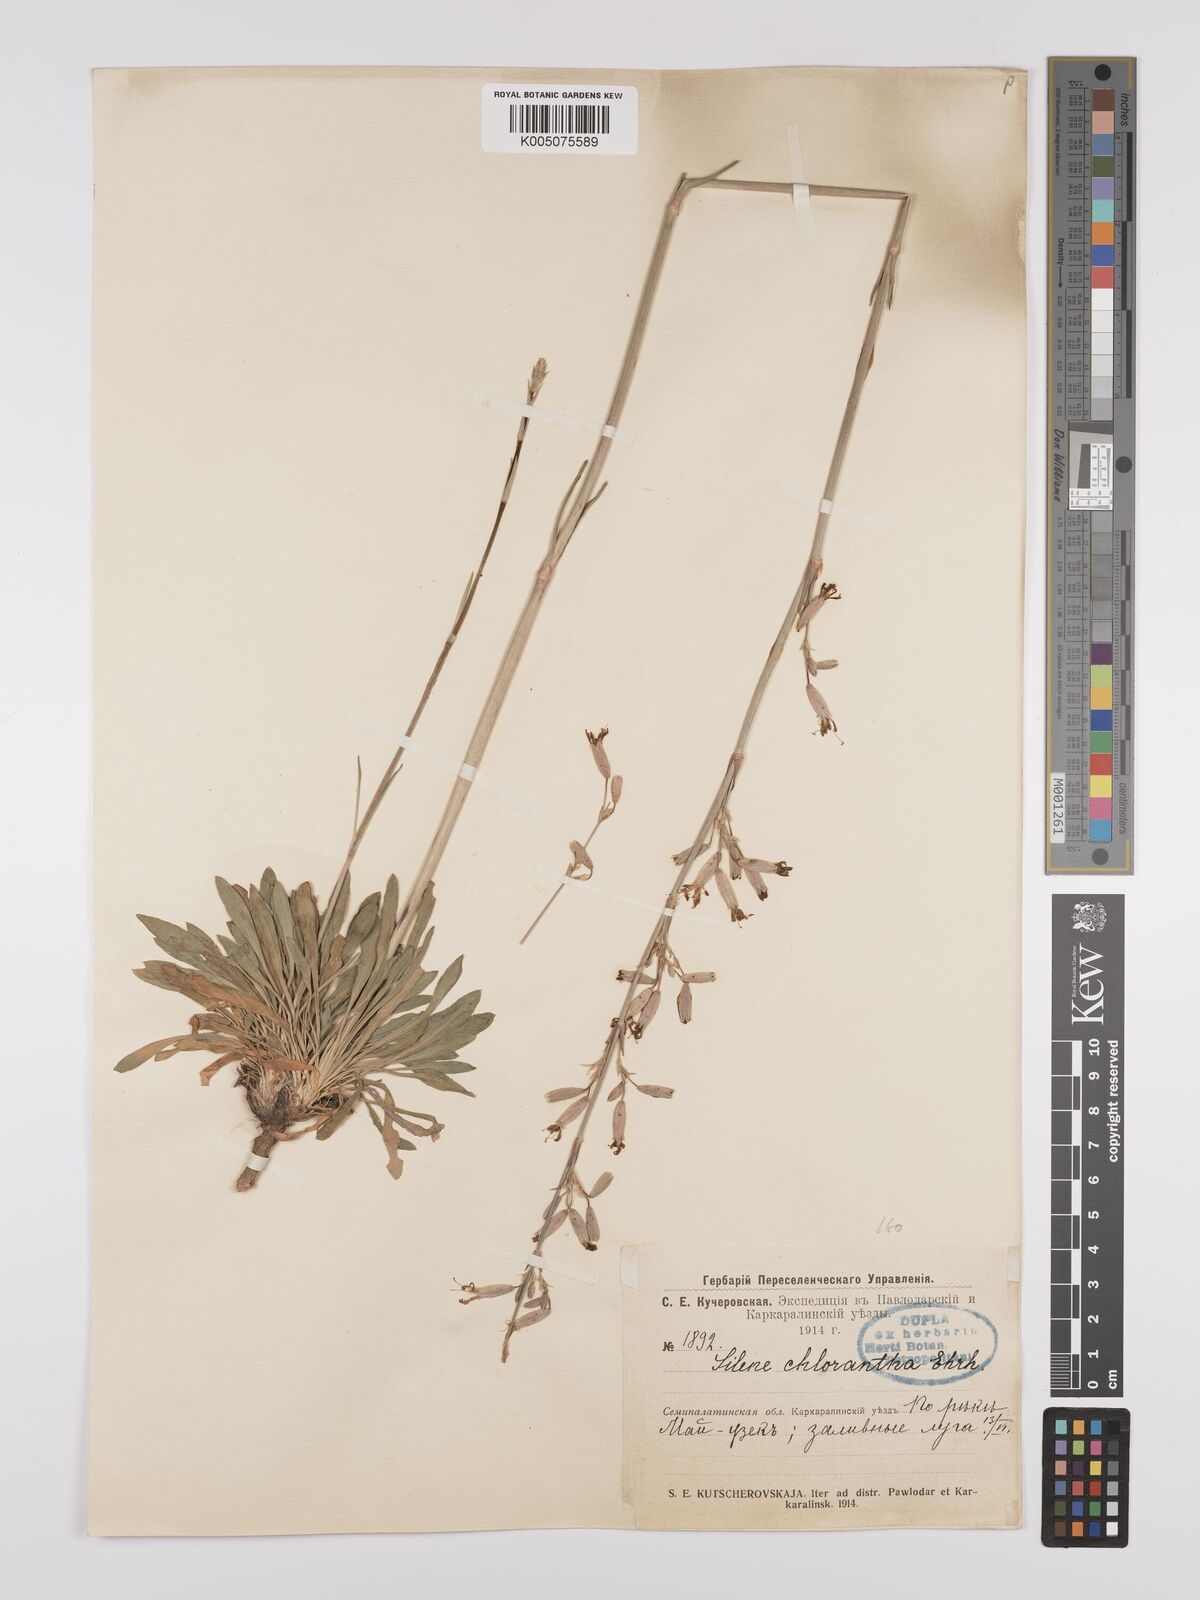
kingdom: Plantae
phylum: Tracheophyta
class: Magnoliopsida
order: Caryophyllales
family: Caryophyllaceae
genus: Silene
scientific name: Silene
